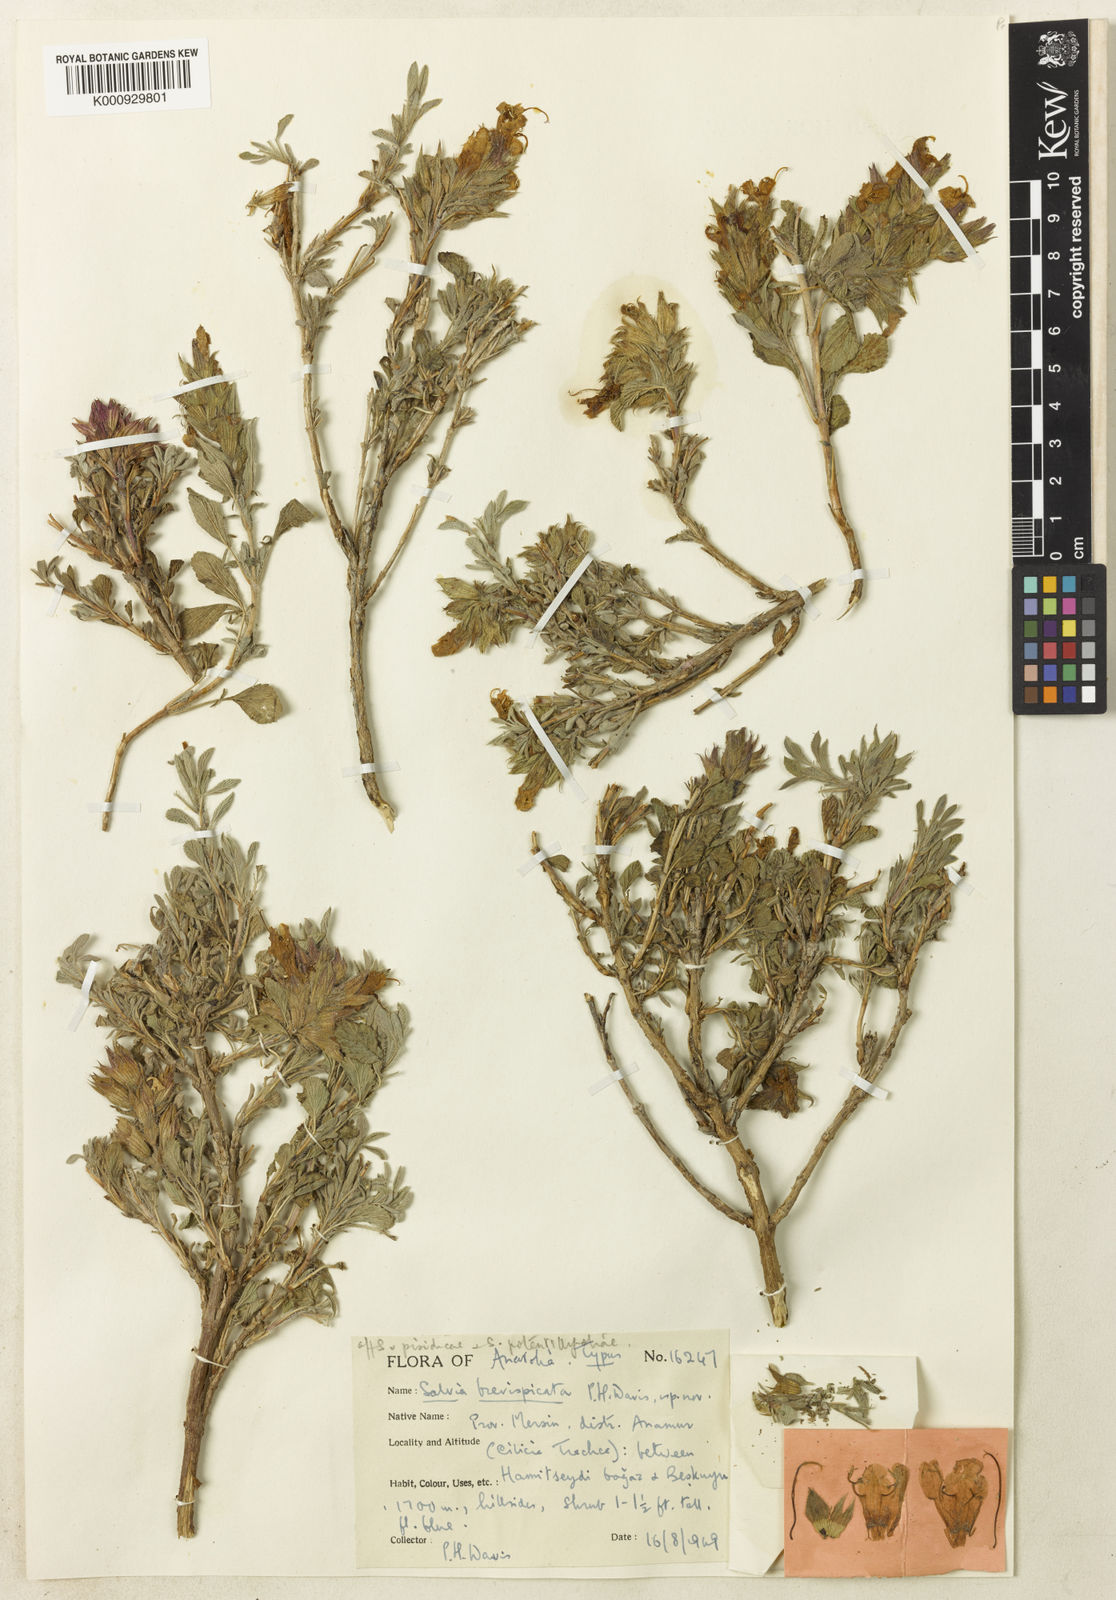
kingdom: Plantae
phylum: Tracheophyta
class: Magnoliopsida
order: Lamiales
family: Lamiaceae
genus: Salvia
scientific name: Salvia heldreichiana
